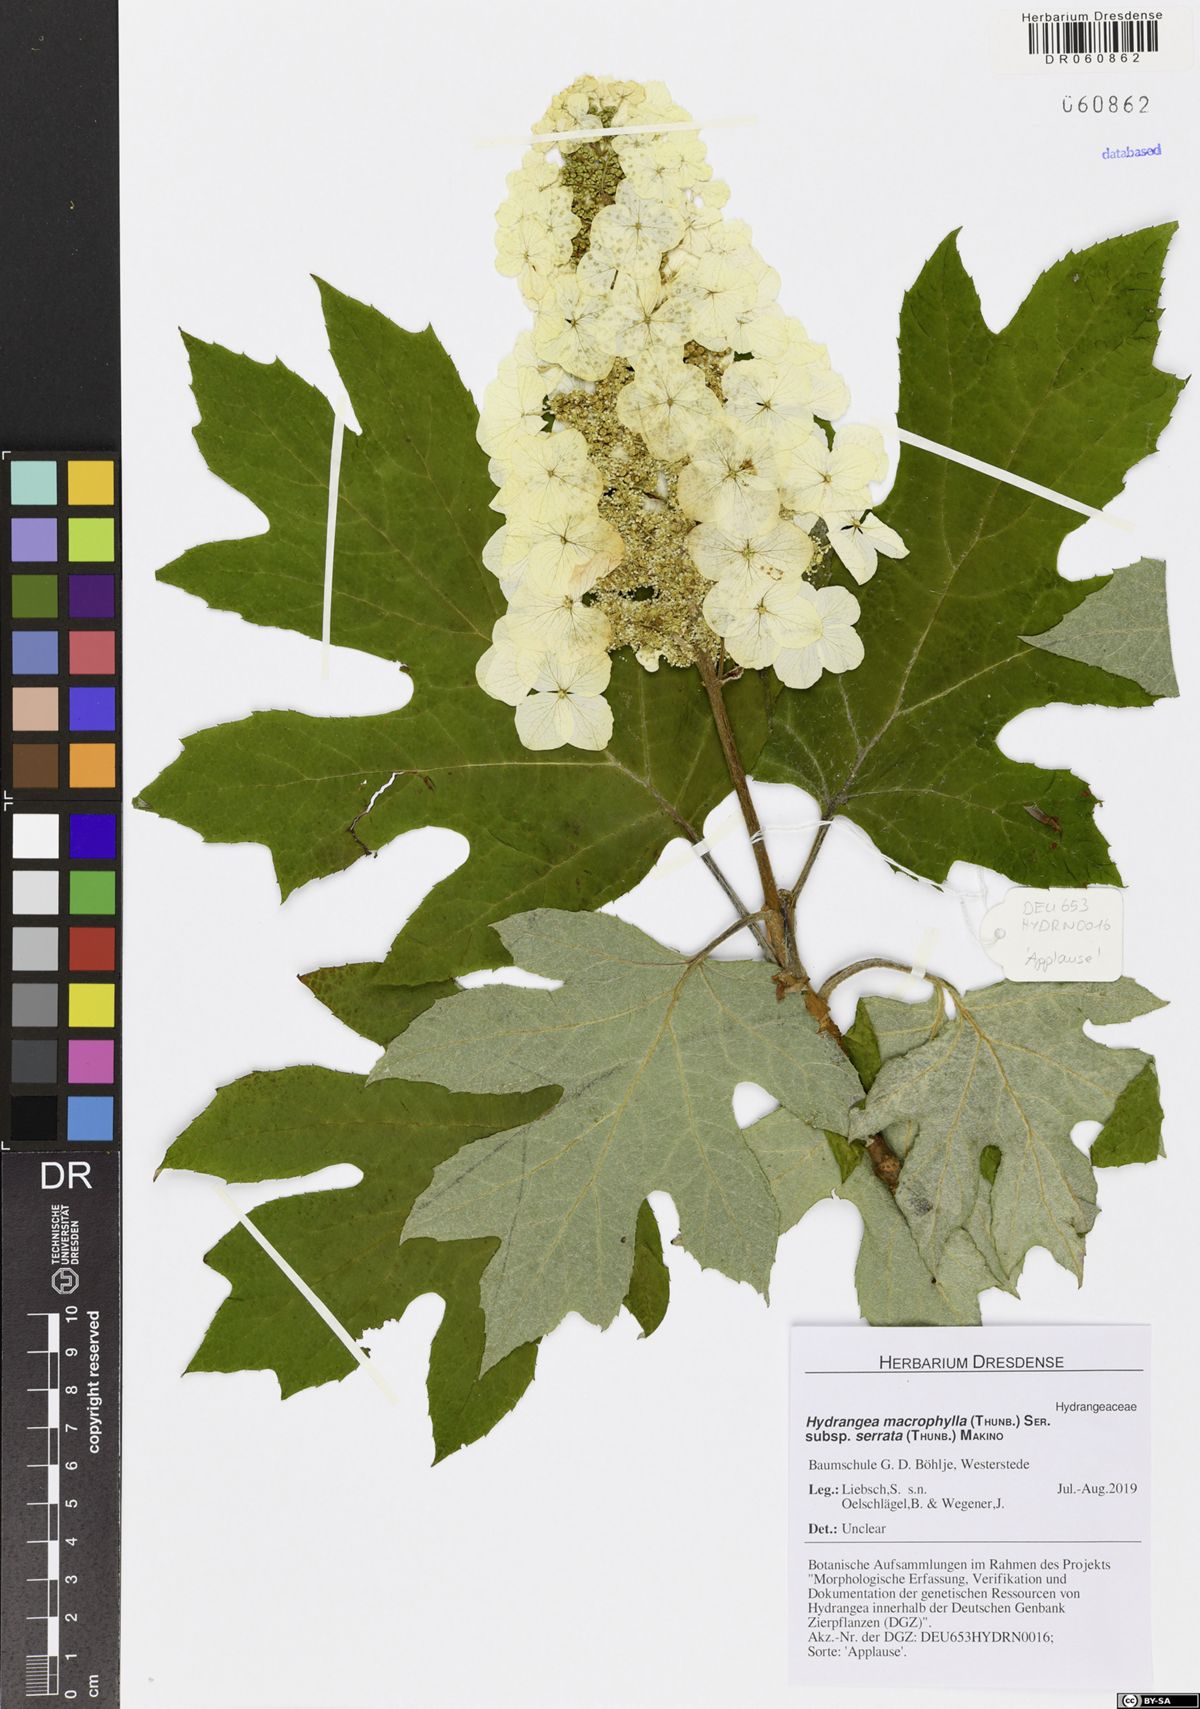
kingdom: Plantae
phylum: Tracheophyta
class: Magnoliopsida
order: Cornales
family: Hydrangeaceae
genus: Hydrangea
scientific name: Hydrangea serrata
